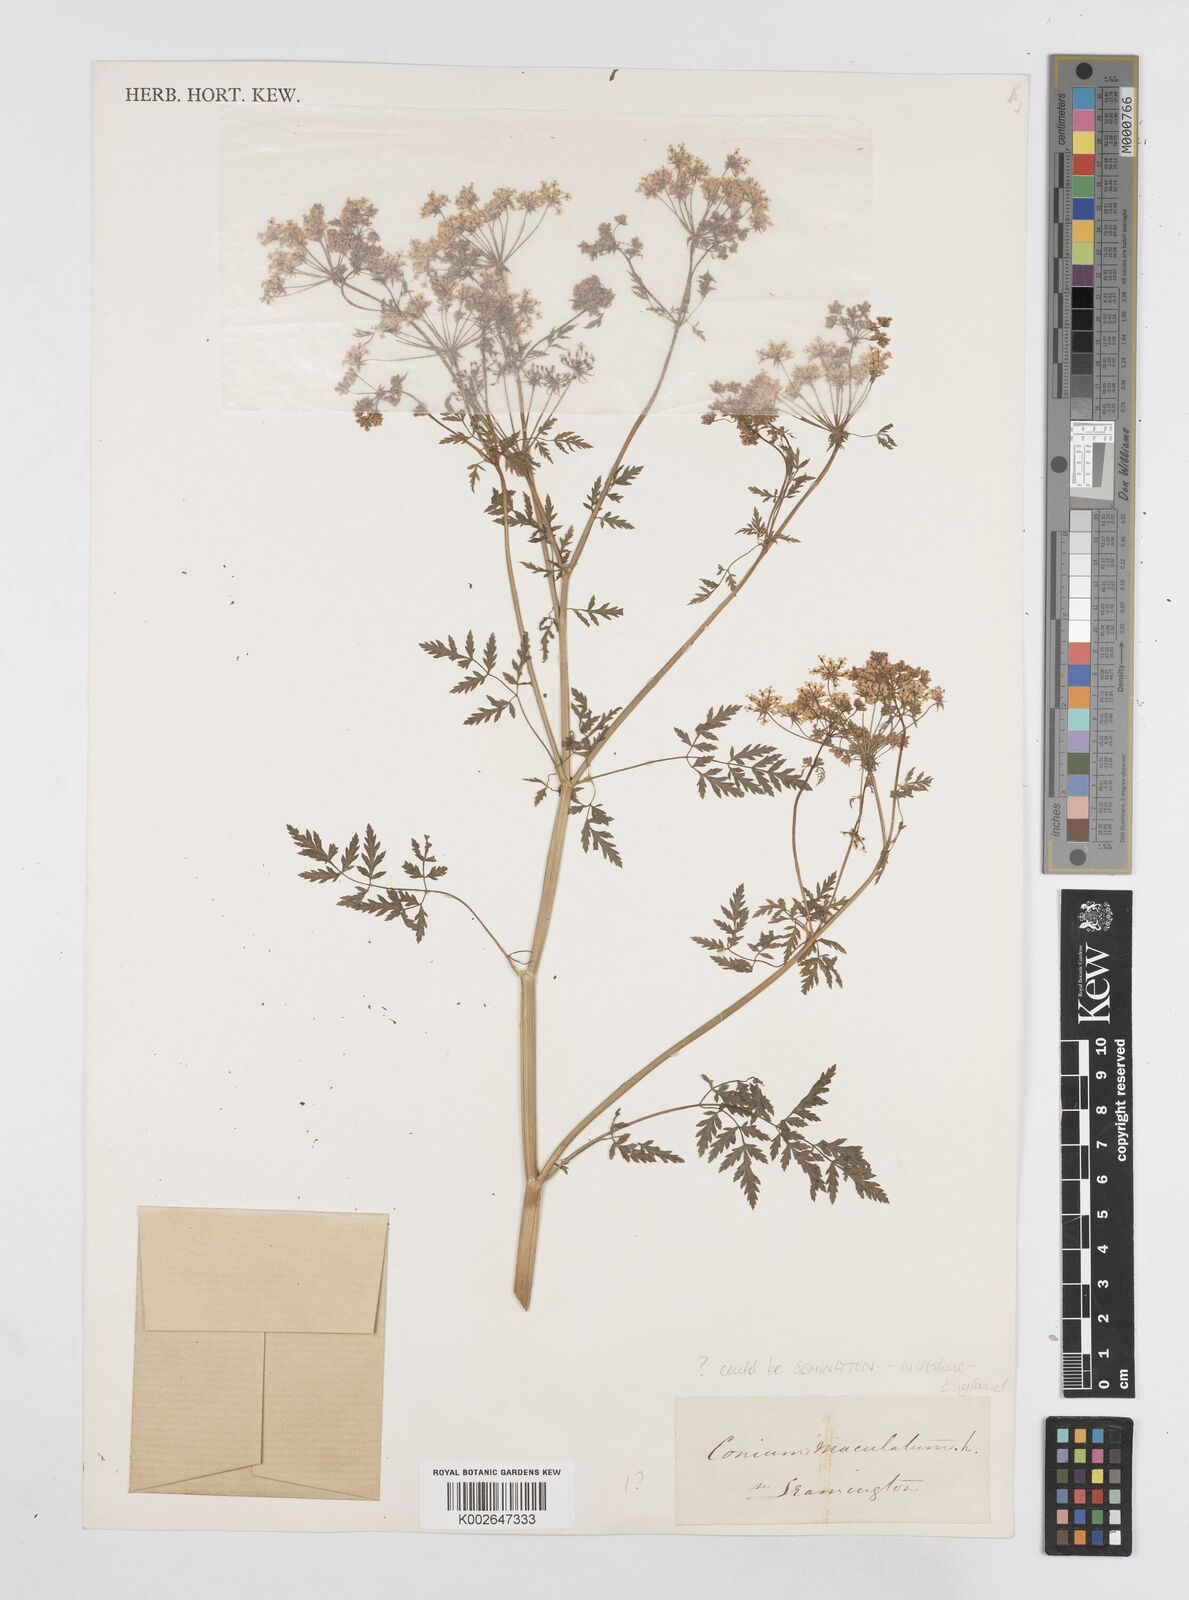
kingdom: Plantae
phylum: Tracheophyta
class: Magnoliopsida
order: Apiales
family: Apiaceae
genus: Conium
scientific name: Conium maculatum
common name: Hemlock
